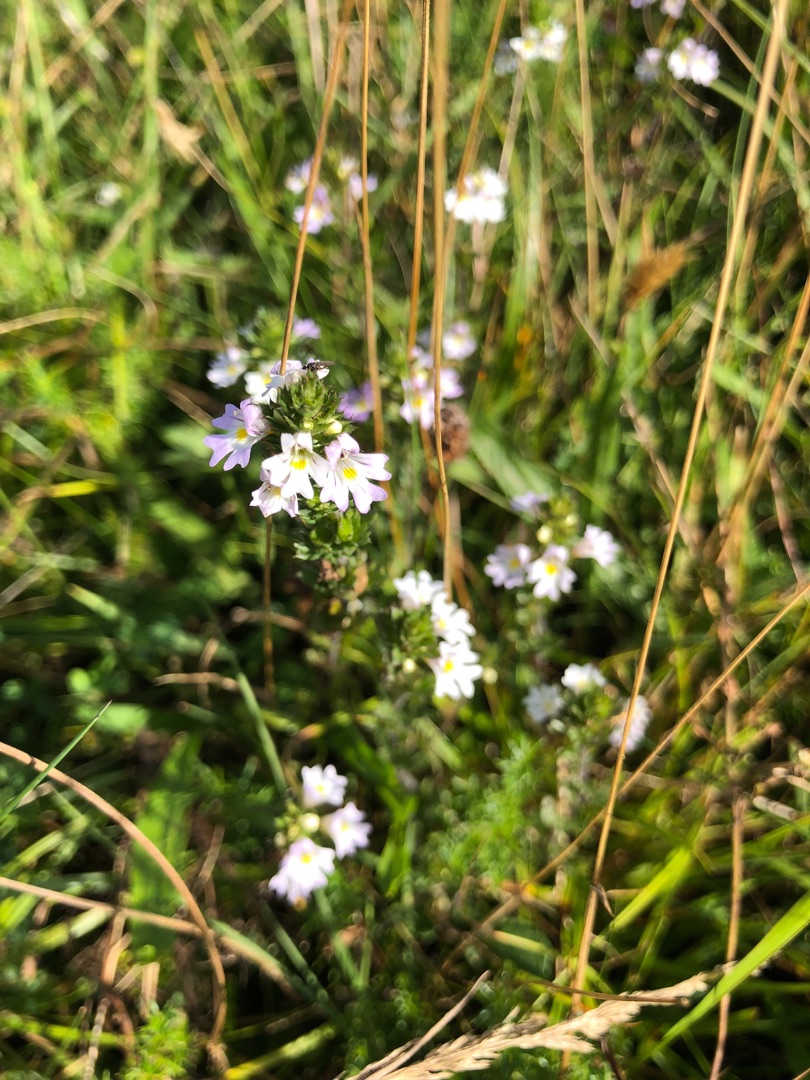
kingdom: Plantae
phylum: Tracheophyta
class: Magnoliopsida
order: Lamiales
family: Orobanchaceae
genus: Euphrasia
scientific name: Euphrasia stricta
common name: Spids øjentrøst
